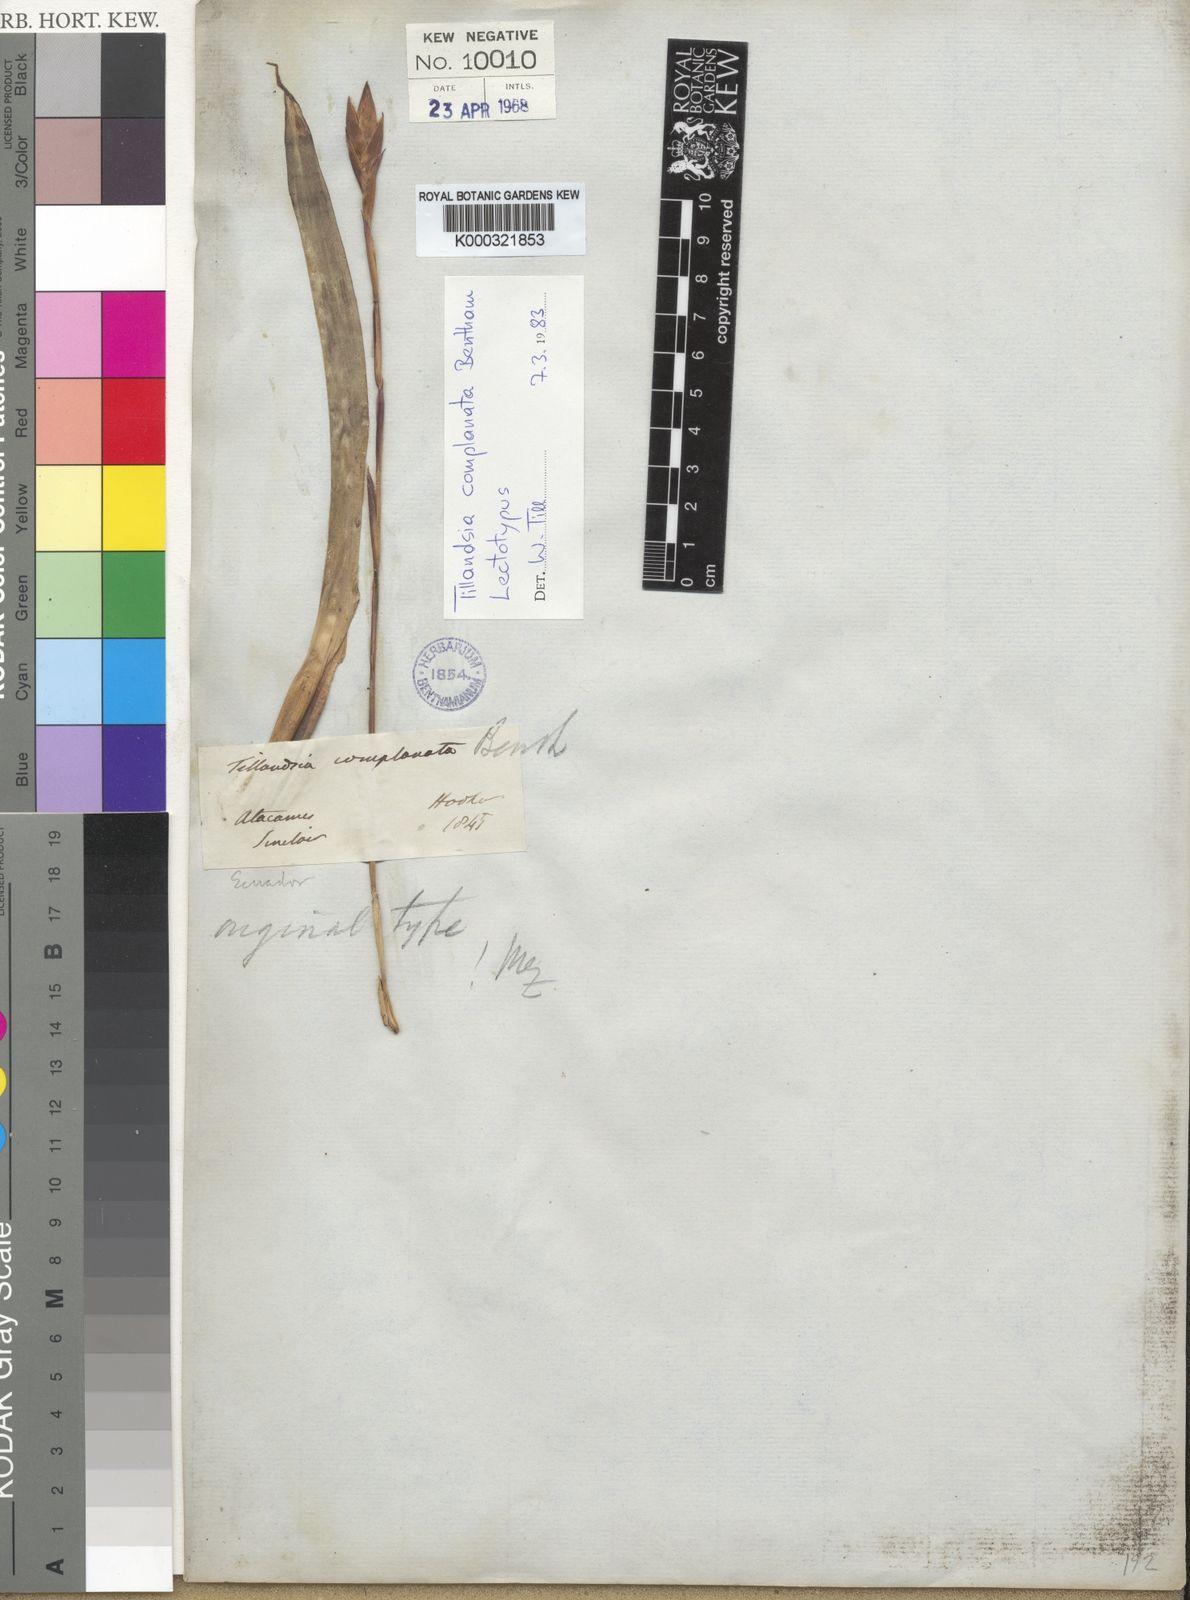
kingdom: Plantae
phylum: Tracheophyta
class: Liliopsida
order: Poales
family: Bromeliaceae
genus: Tillandsia
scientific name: Tillandsia complanata
